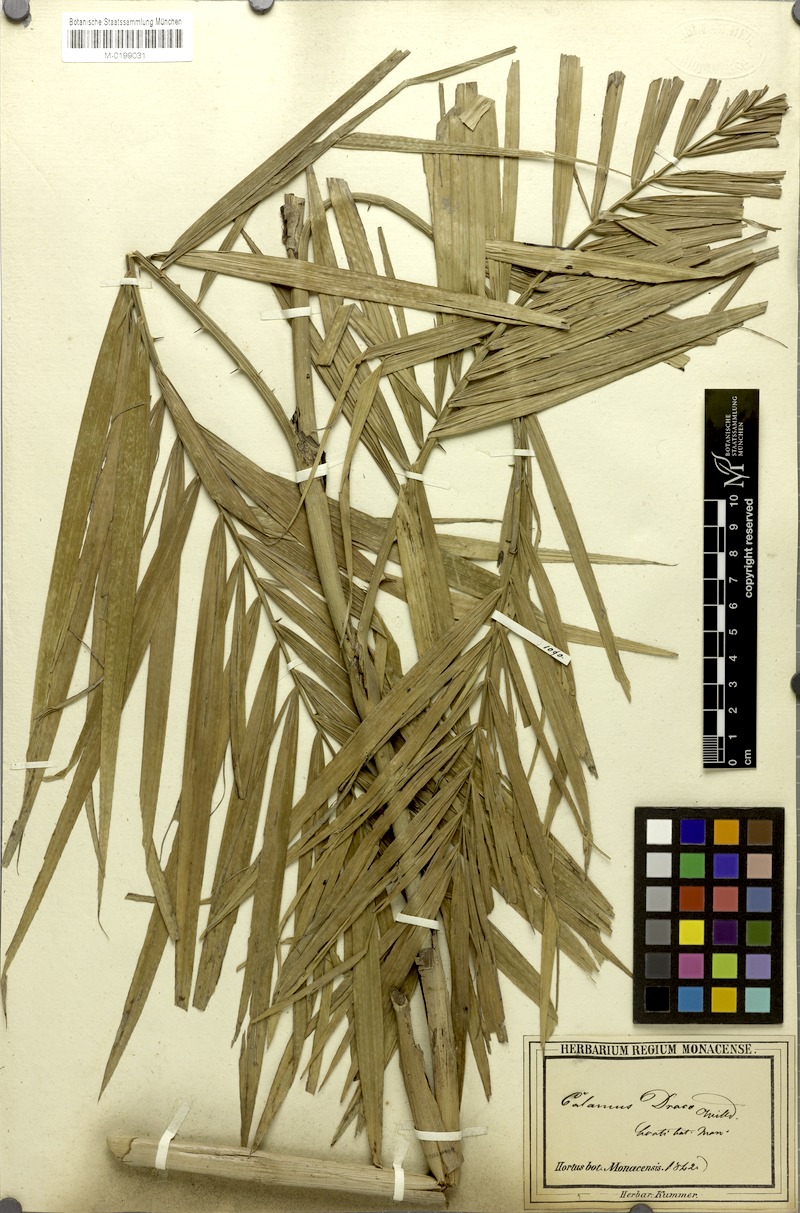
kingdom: Plantae
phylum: Tracheophyta
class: Liliopsida
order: Arecales
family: Arecaceae
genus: Calamus
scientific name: Calamus draco
